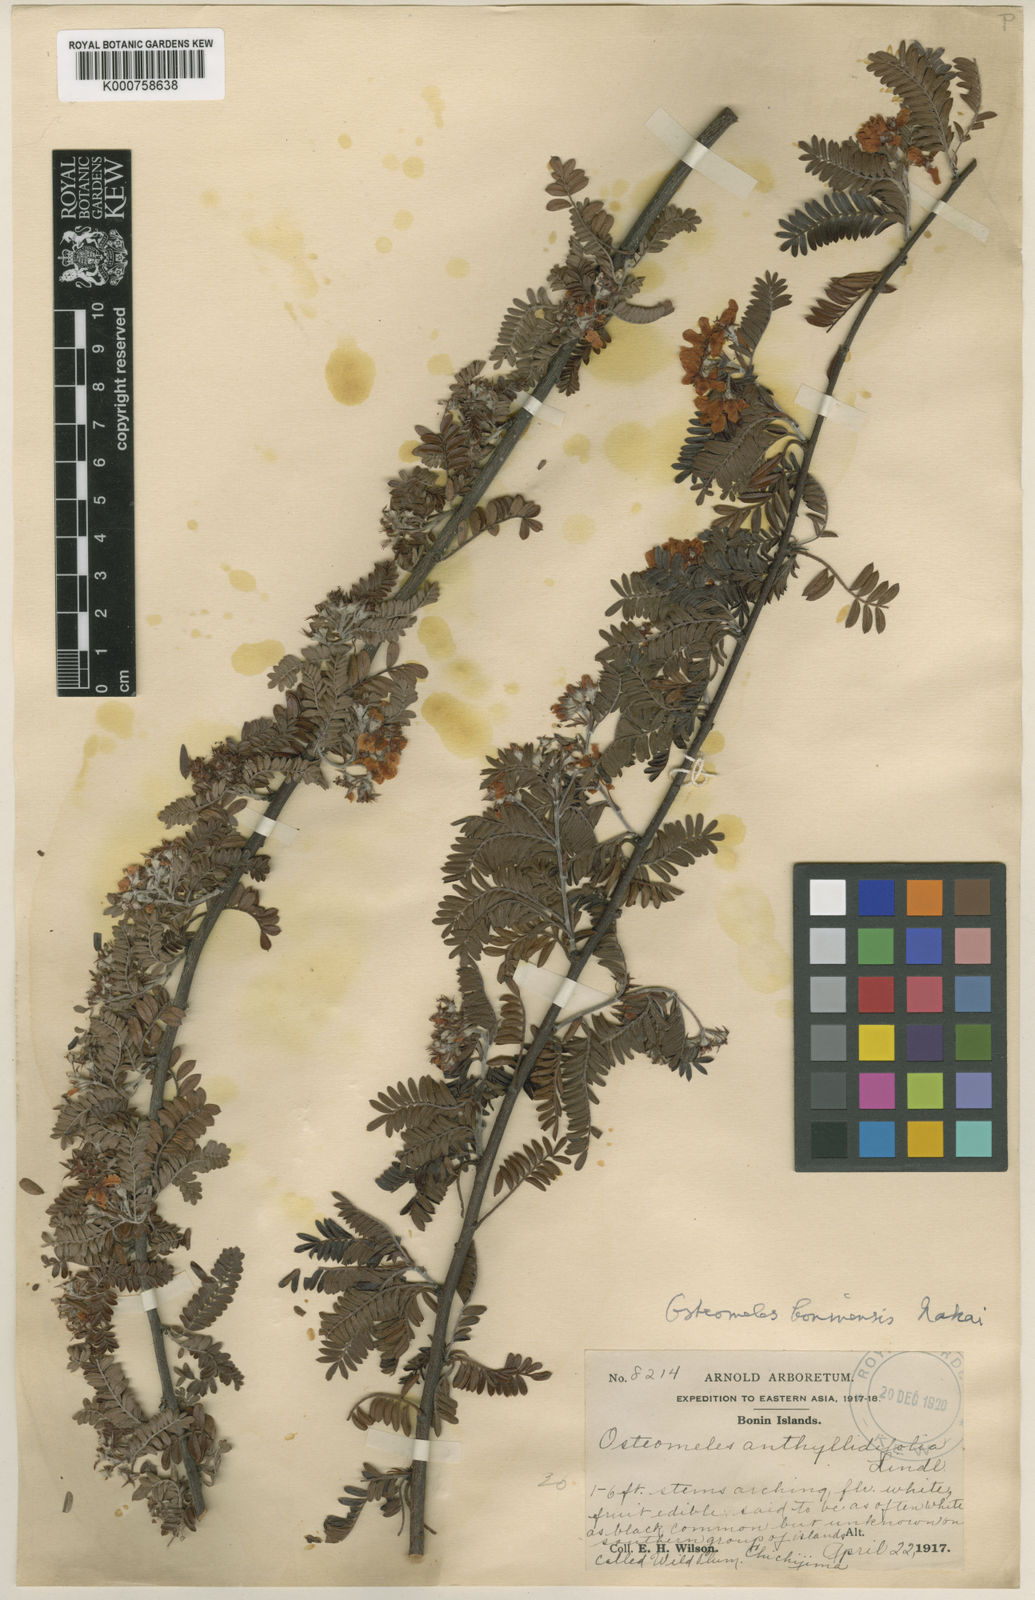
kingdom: Plantae
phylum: Tracheophyta
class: Magnoliopsida
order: Rosales
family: Rosaceae
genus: Osteomeles
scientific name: Osteomeles schweriniae
